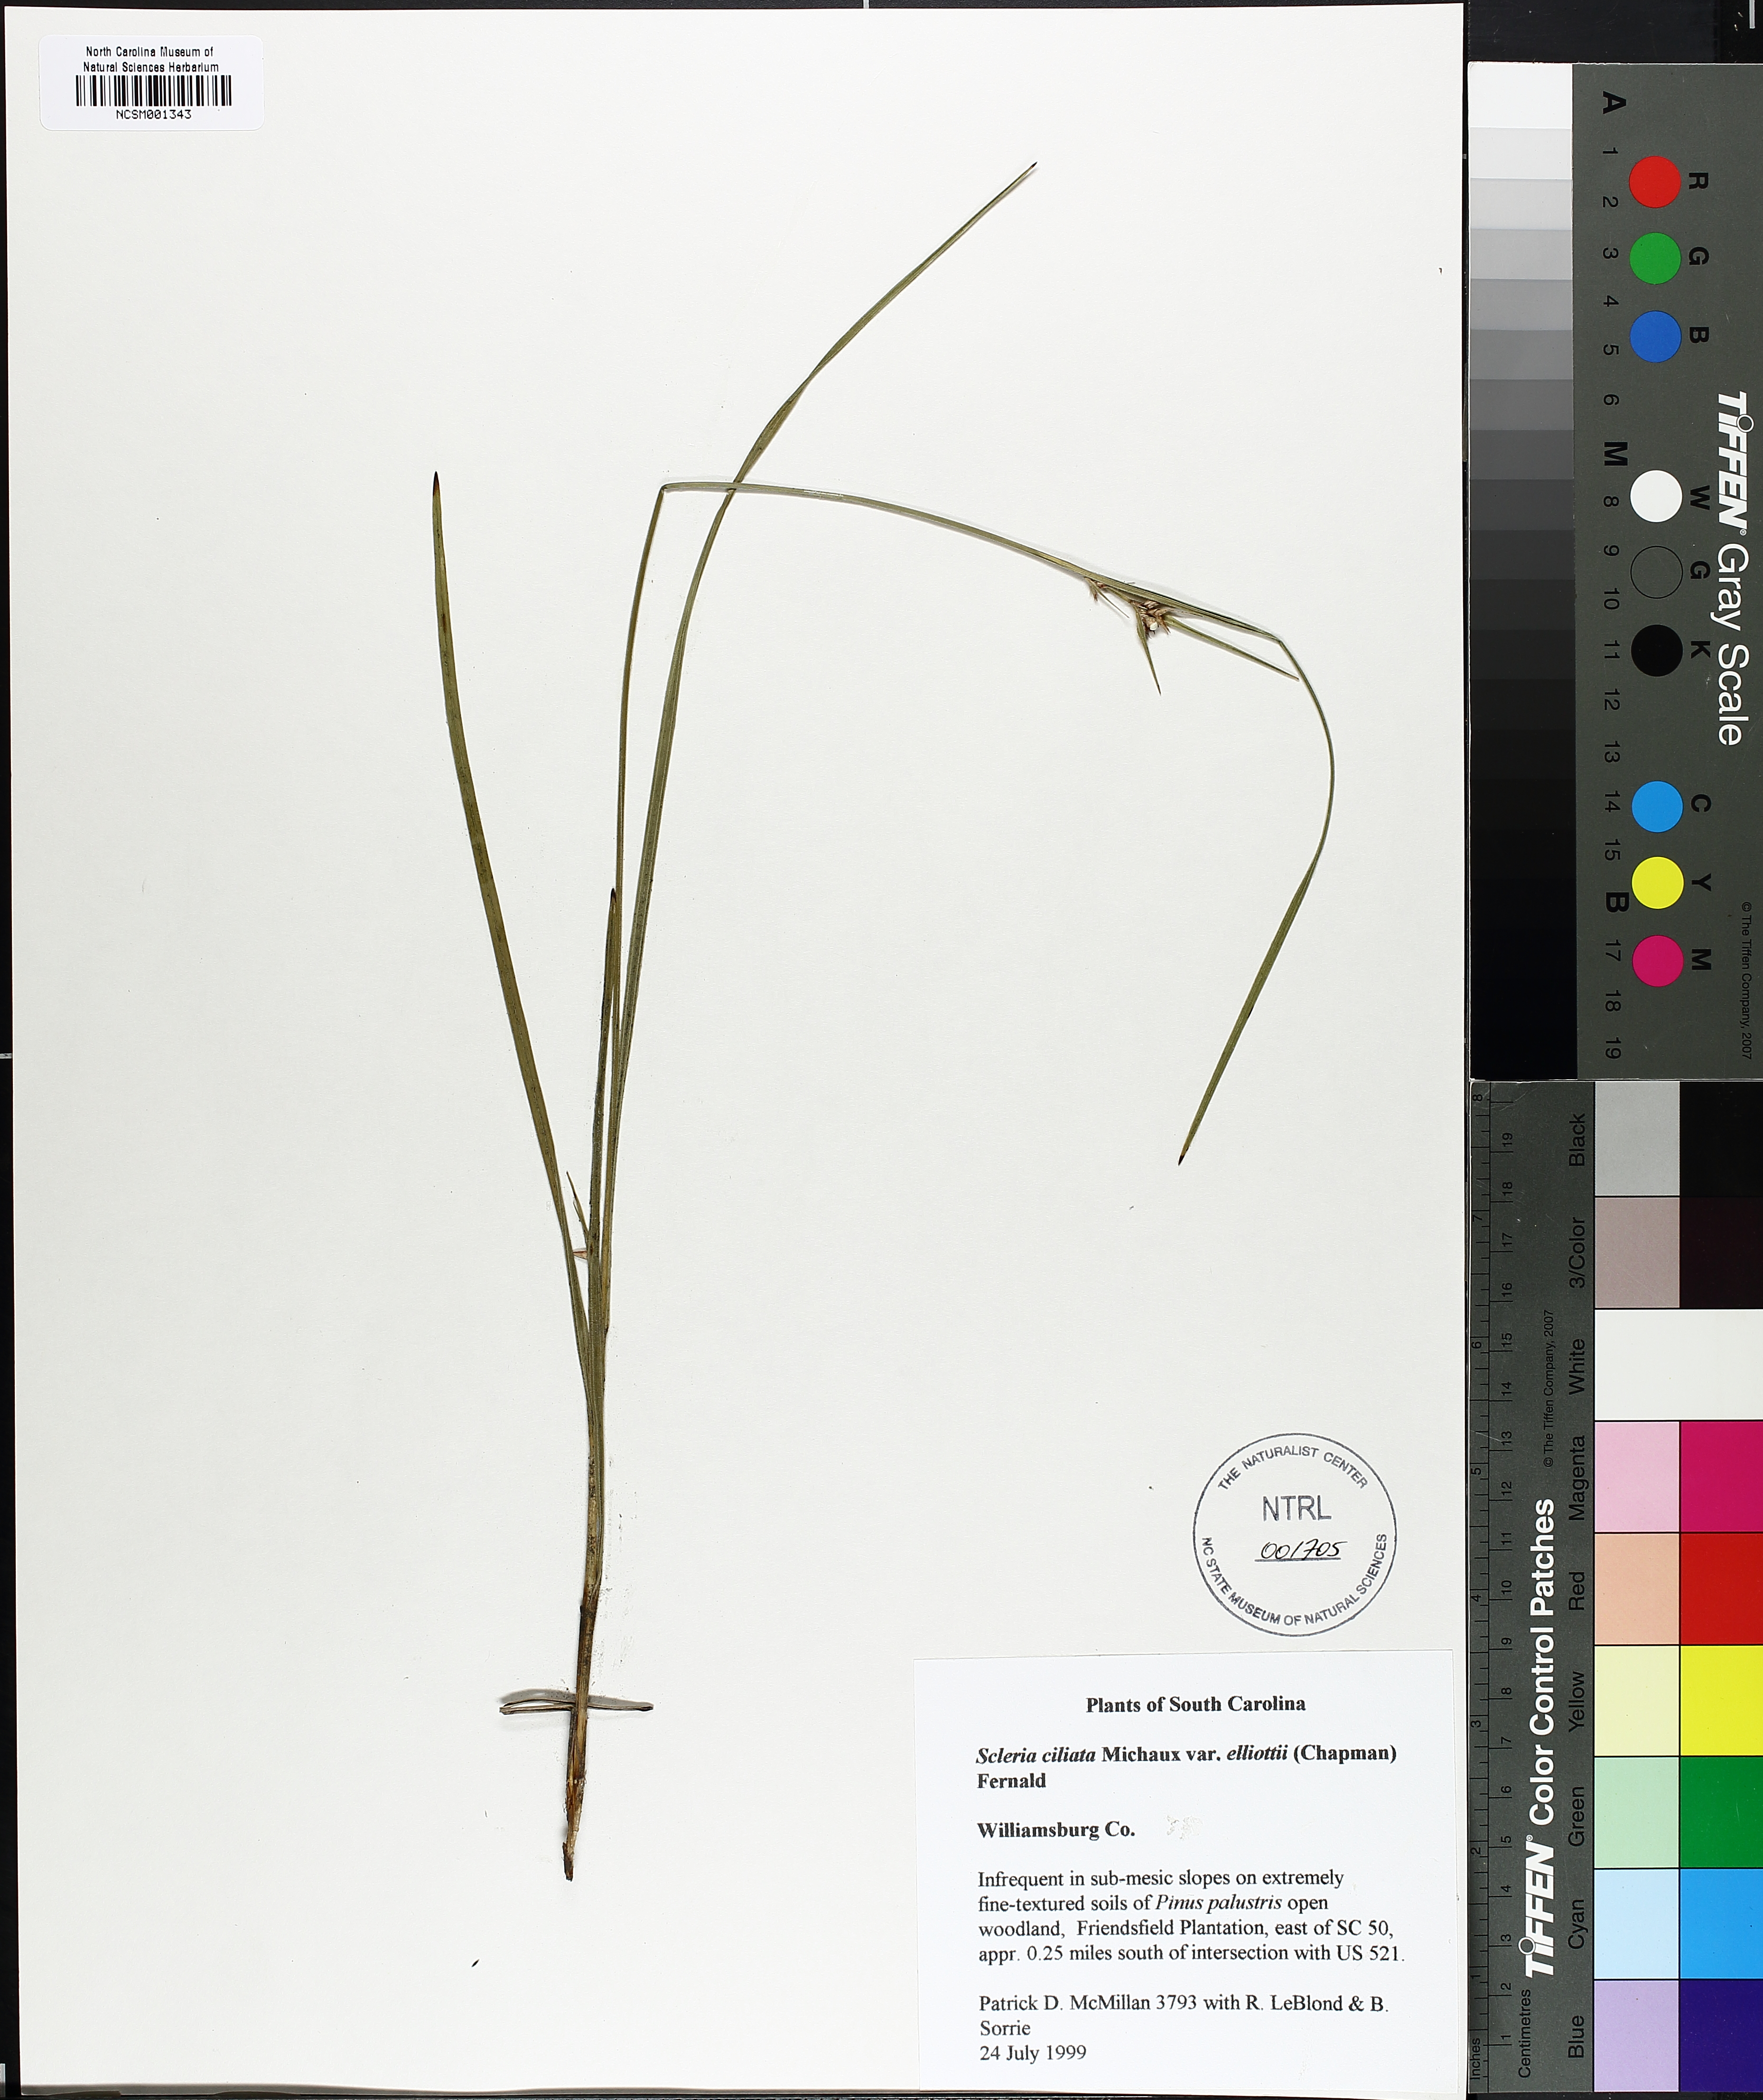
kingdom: Plantae
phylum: Tracheophyta
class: Liliopsida
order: Poales
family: Cyperaceae
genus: Scleria
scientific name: Scleria ciliata
